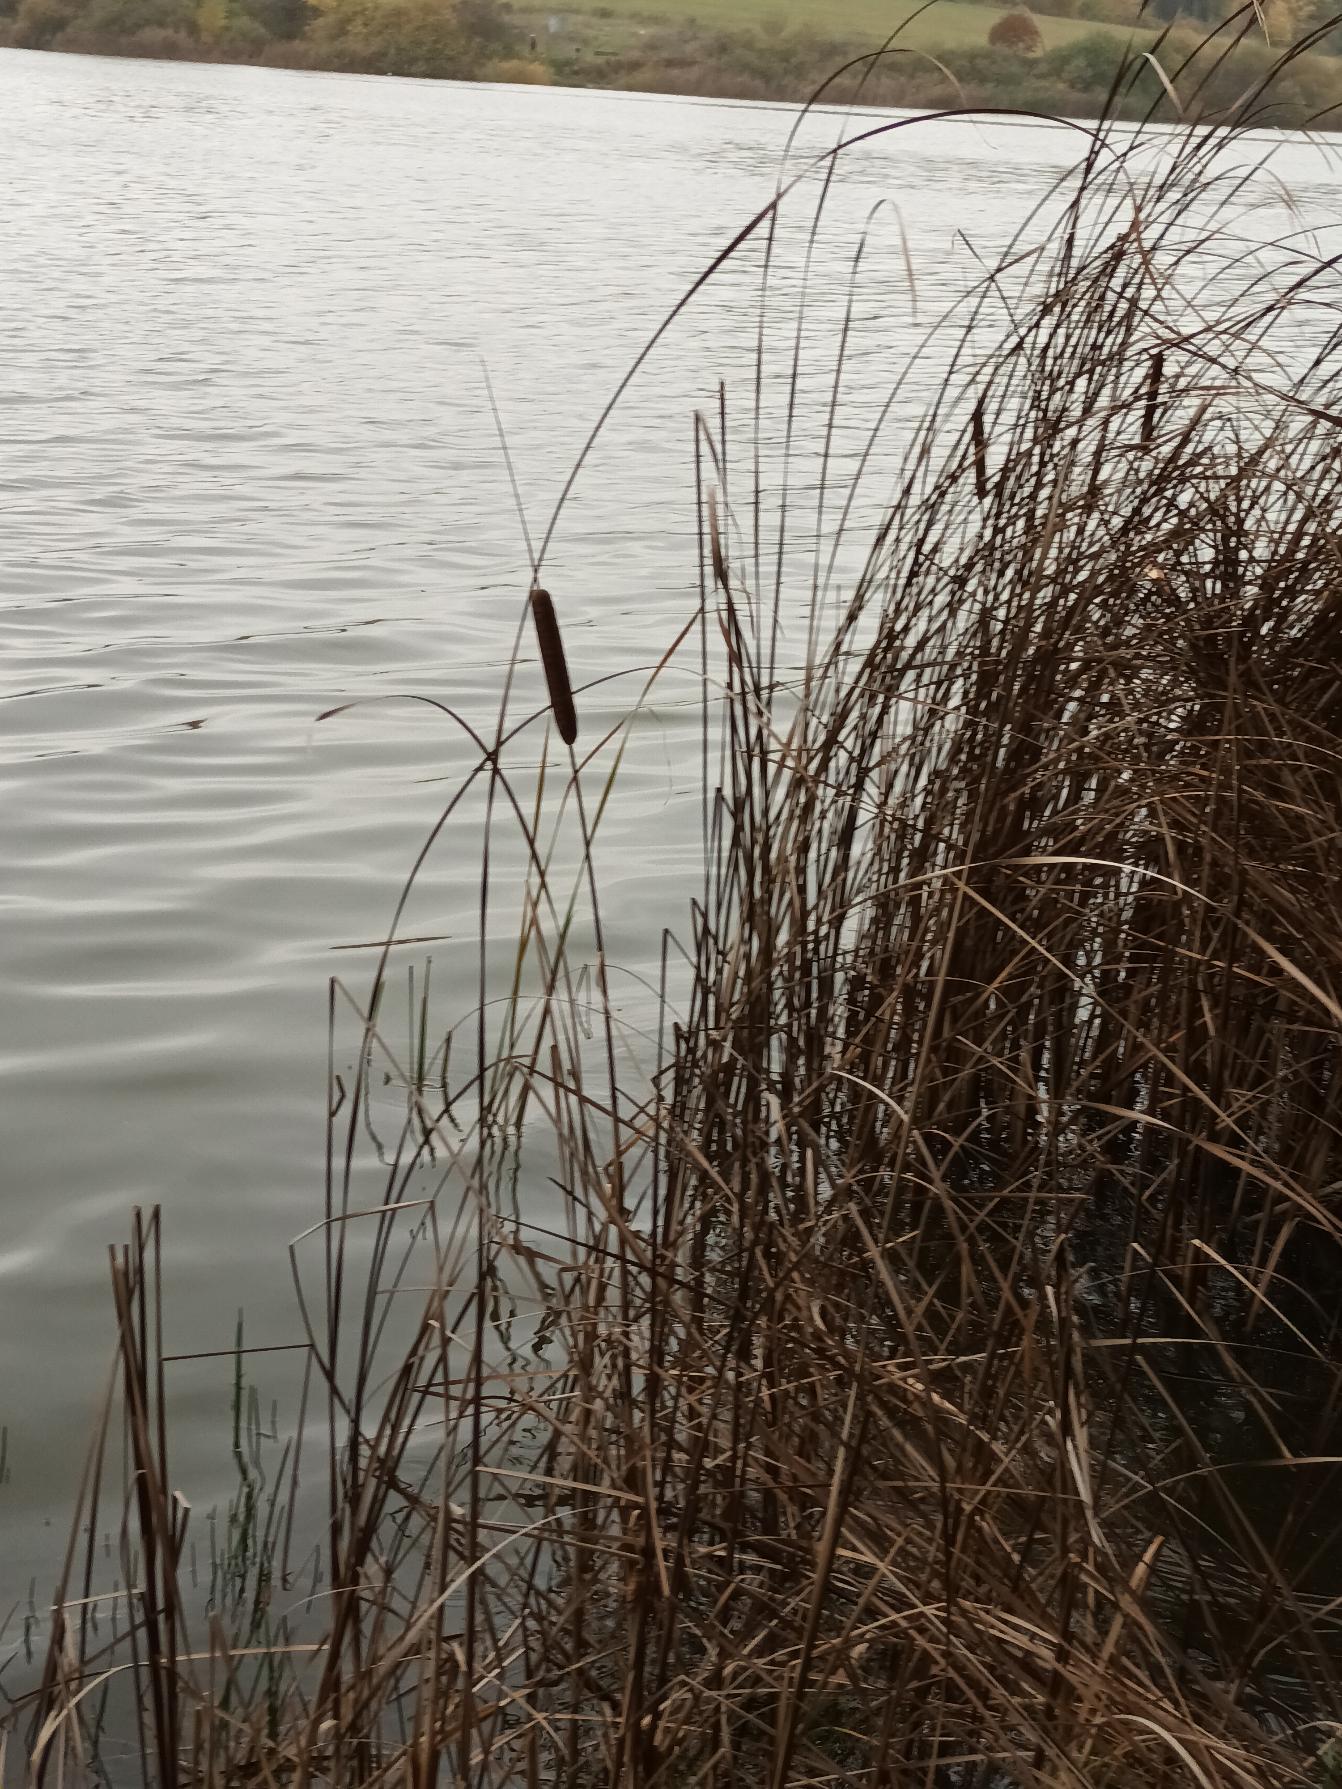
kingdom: Plantae
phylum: Tracheophyta
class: Liliopsida
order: Poales
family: Typhaceae
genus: Typha
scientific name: Typha angustifolia
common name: Smalbladet dunhammer
